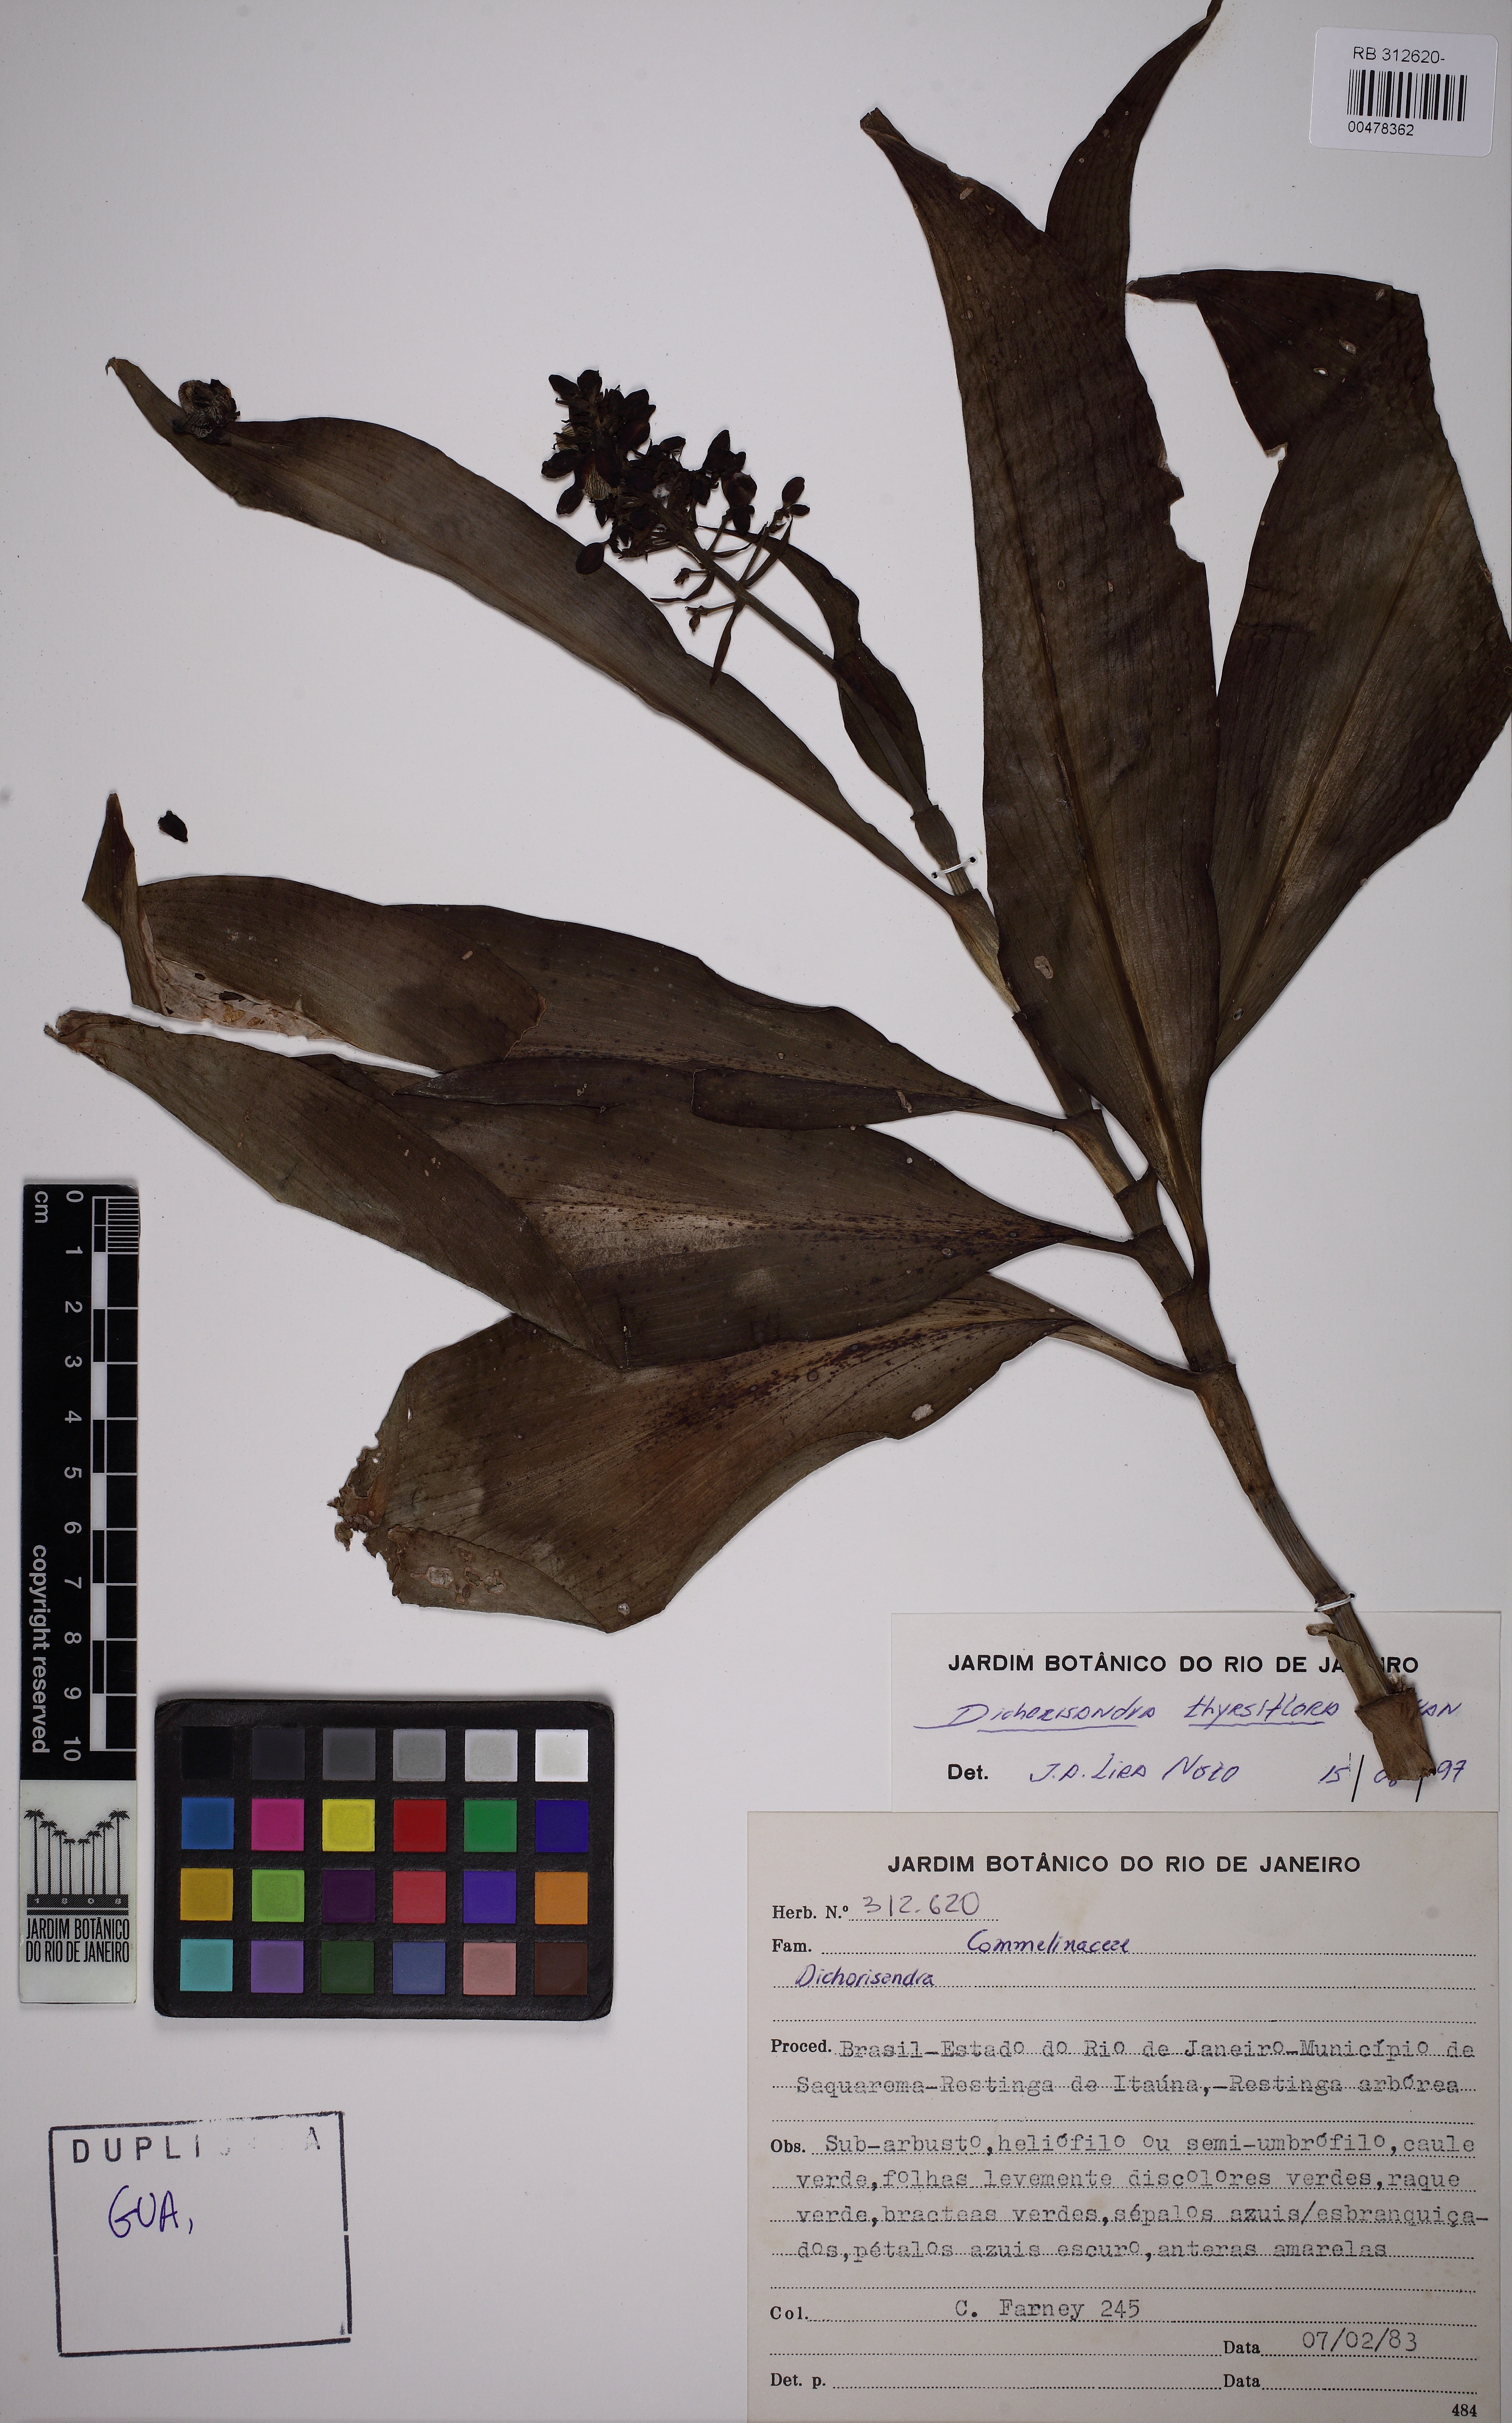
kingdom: Plantae
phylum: Tracheophyta
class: Liliopsida
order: Commelinales
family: Commelinaceae
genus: Dichorisandra
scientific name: Dichorisandra thyrsiflora
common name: Blue-ginger
